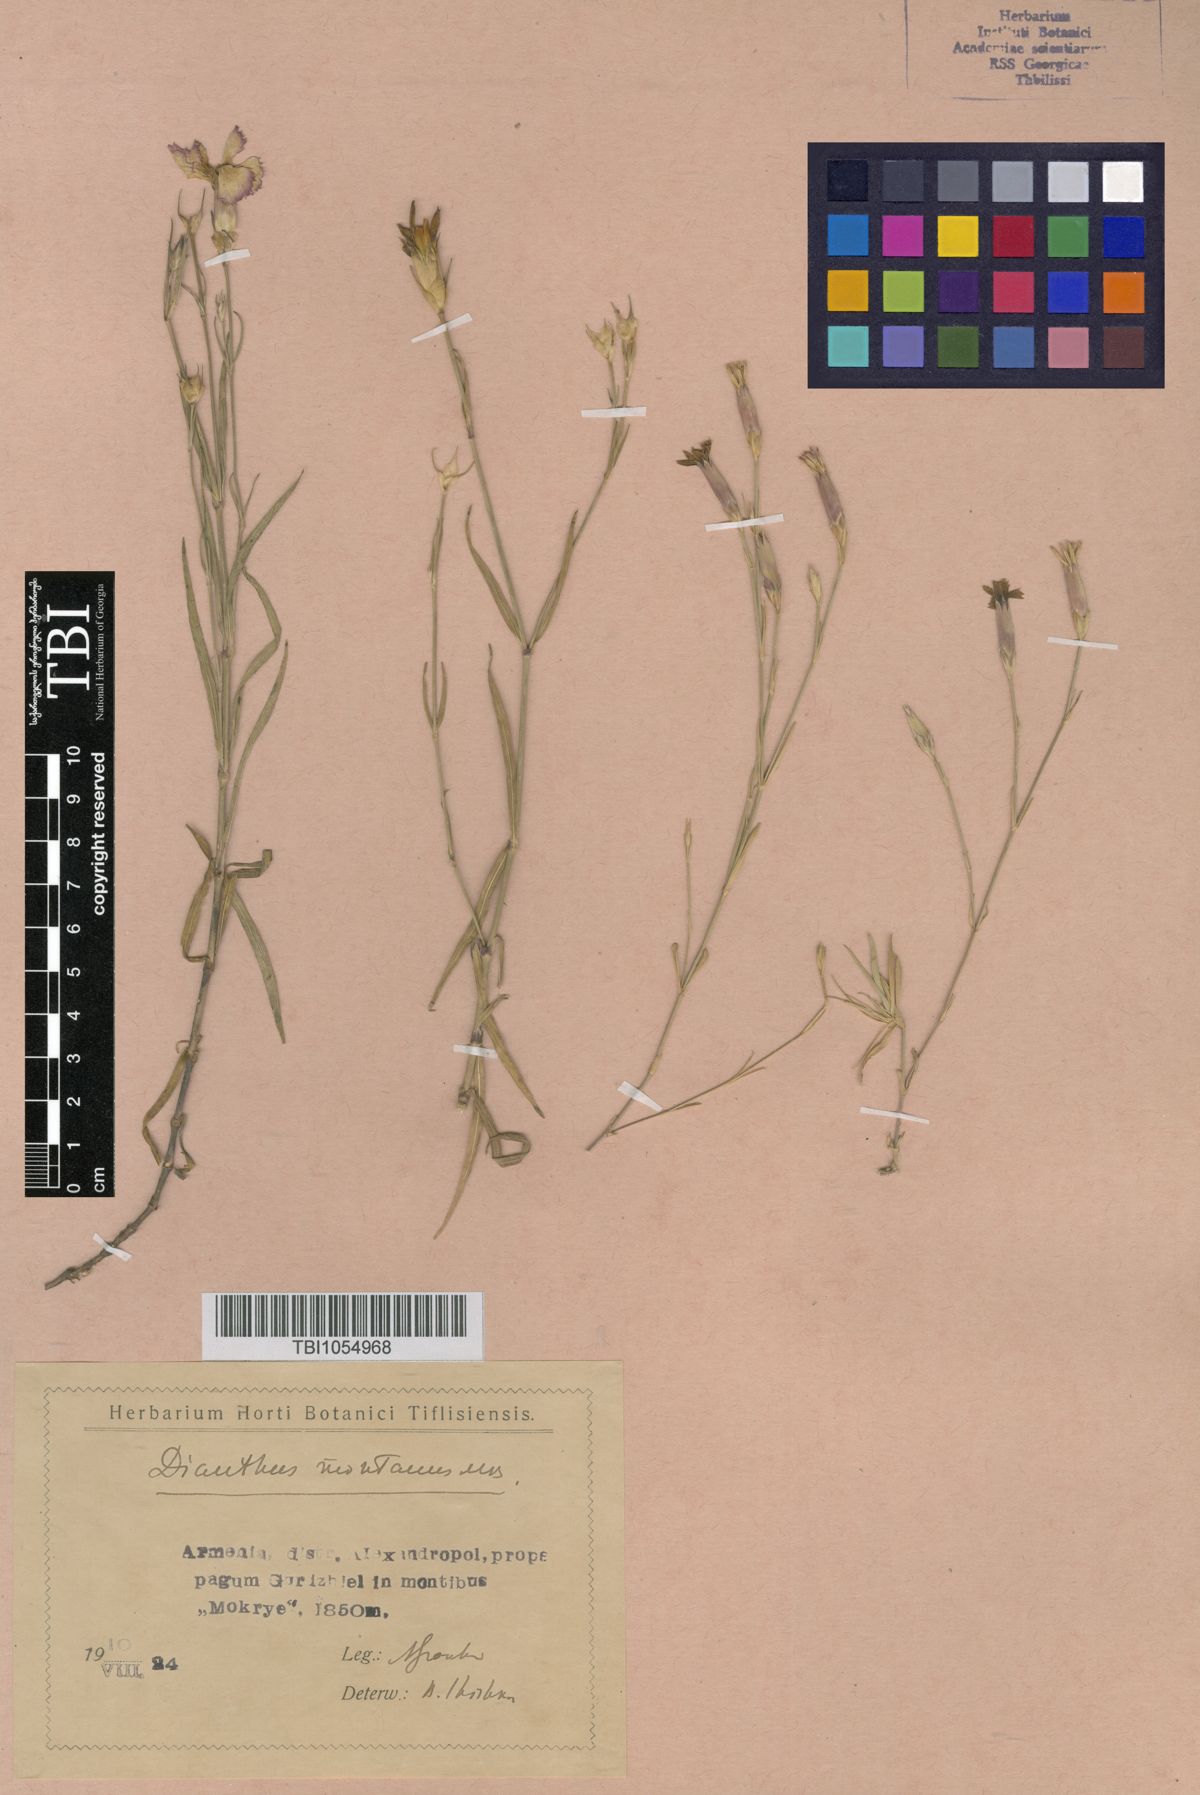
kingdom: Plantae
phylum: Tracheophyta
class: Magnoliopsida
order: Caryophyllales
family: Caryophyllaceae
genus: Dianthus
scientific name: Dianthus caucaseus
